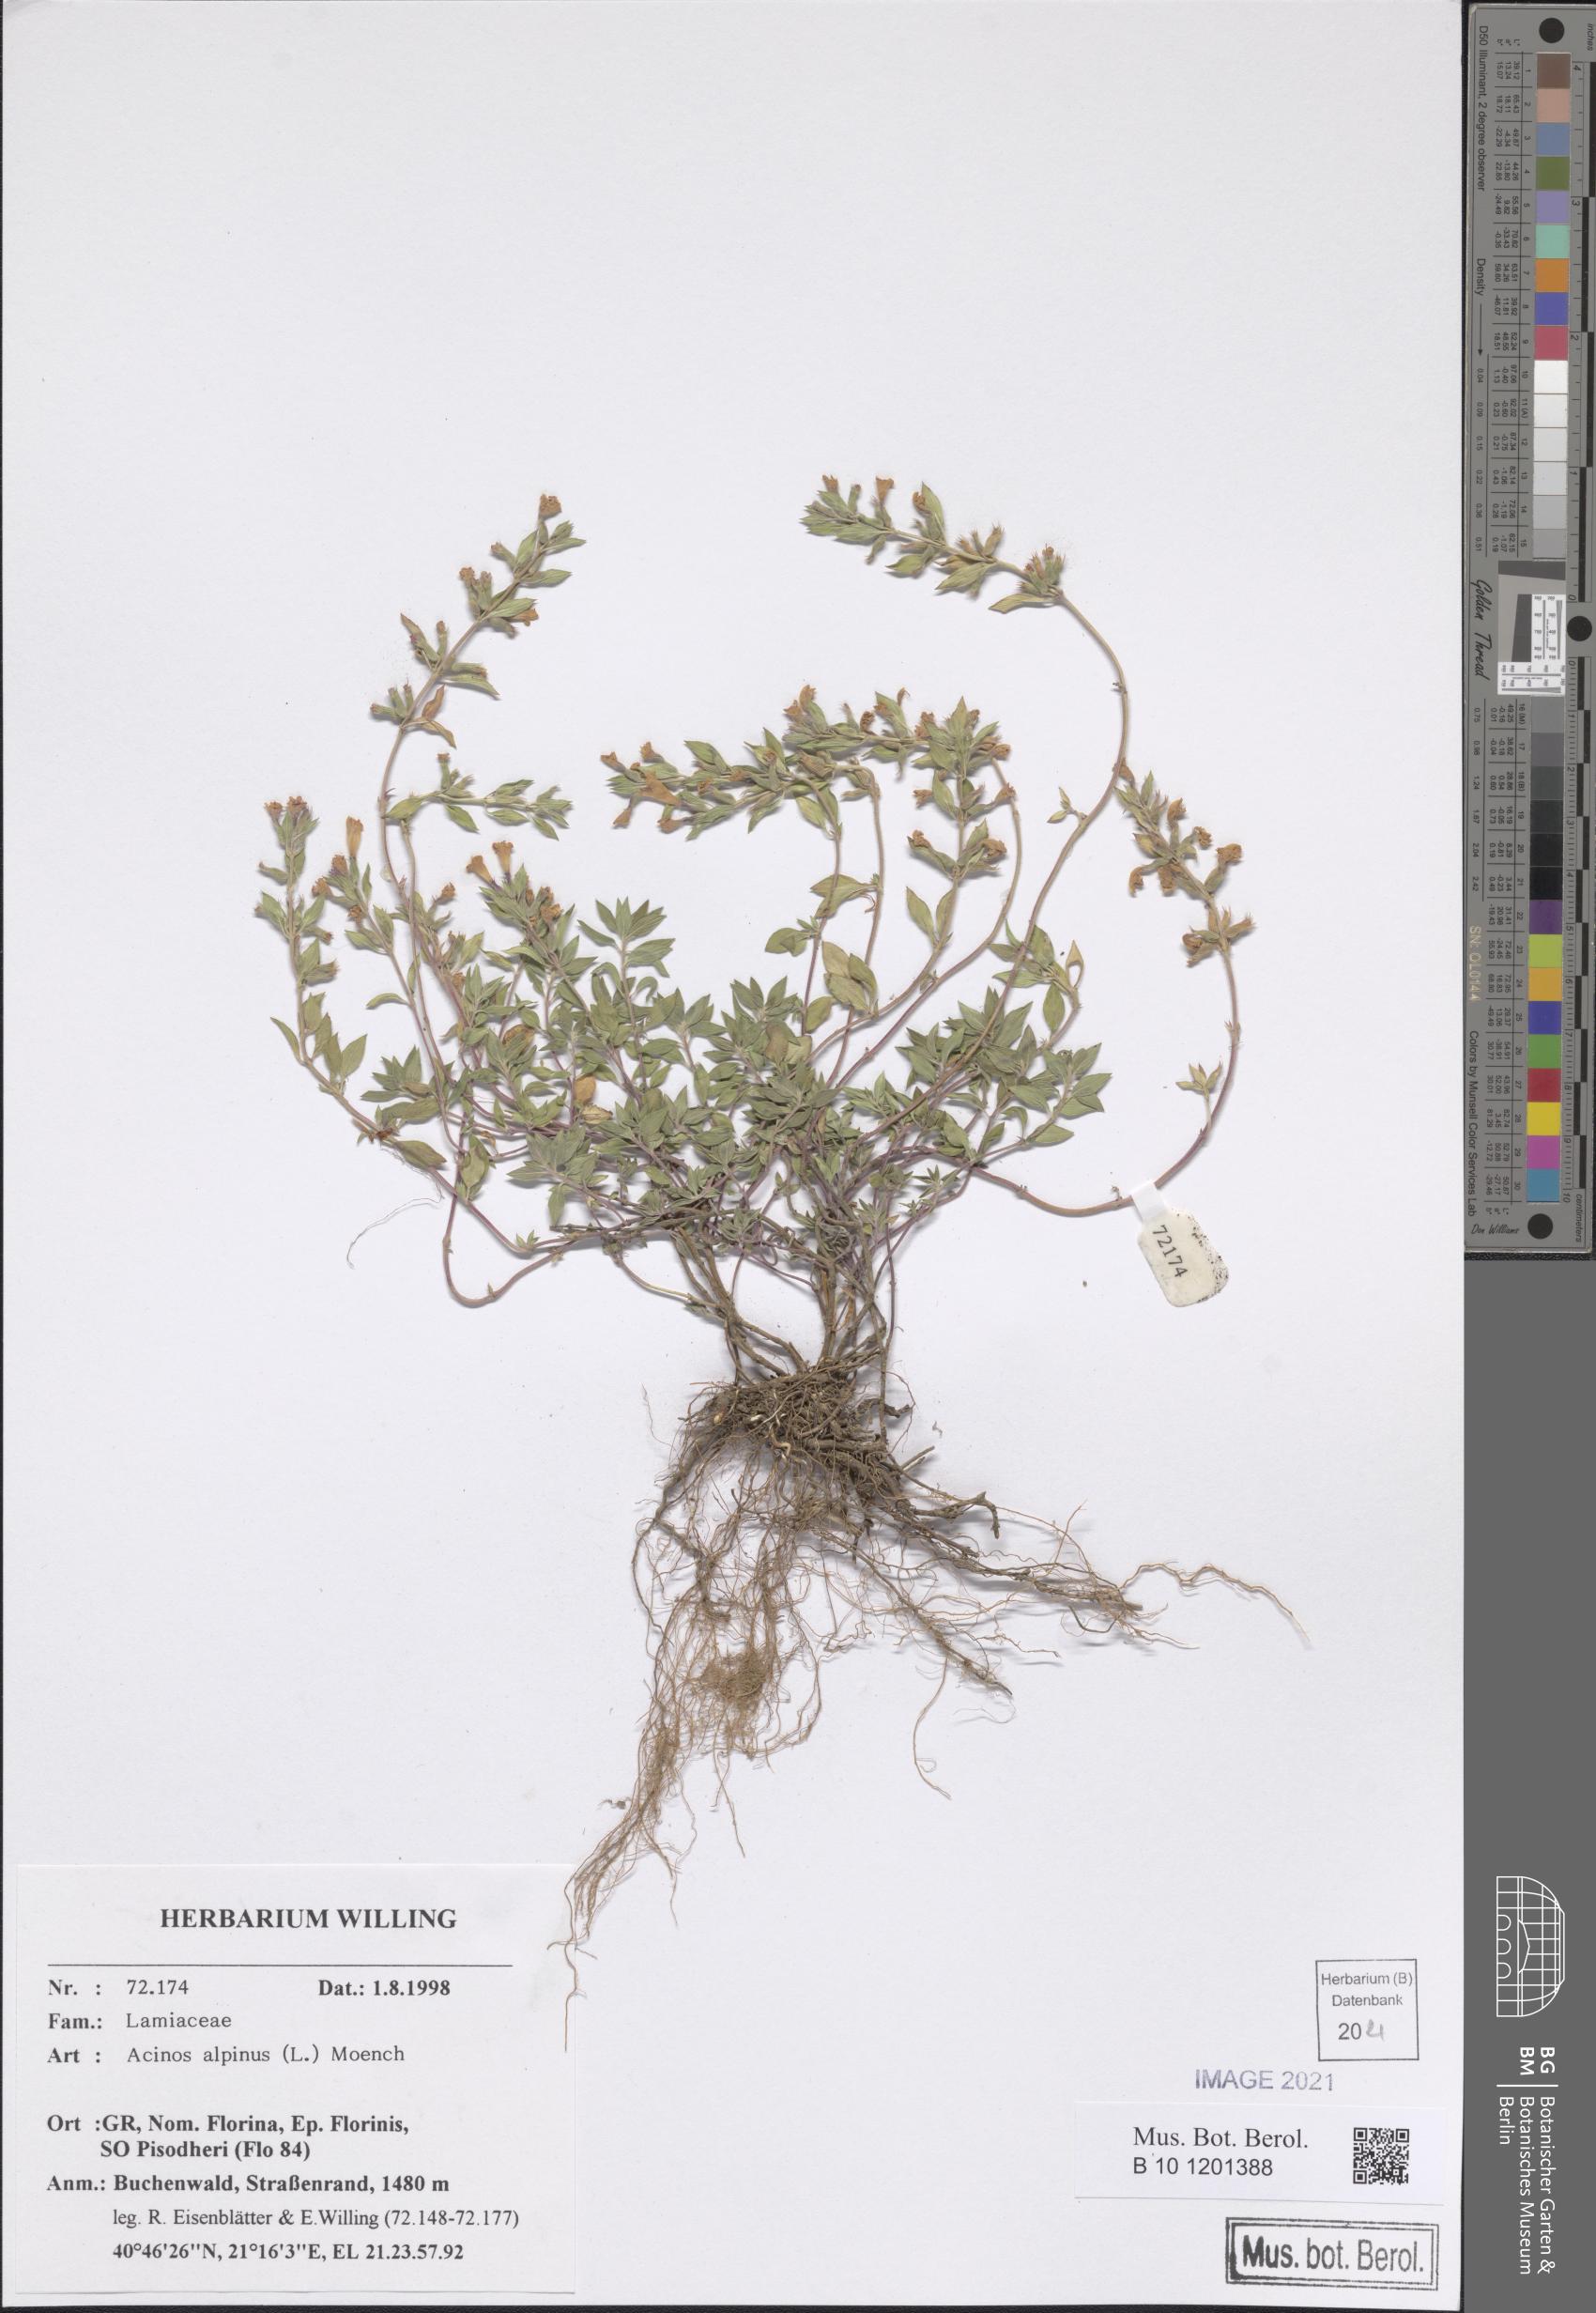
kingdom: Plantae
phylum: Tracheophyta
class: Magnoliopsida
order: Lamiales
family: Lamiaceae
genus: Clinopodium
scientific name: Clinopodium alpinum
